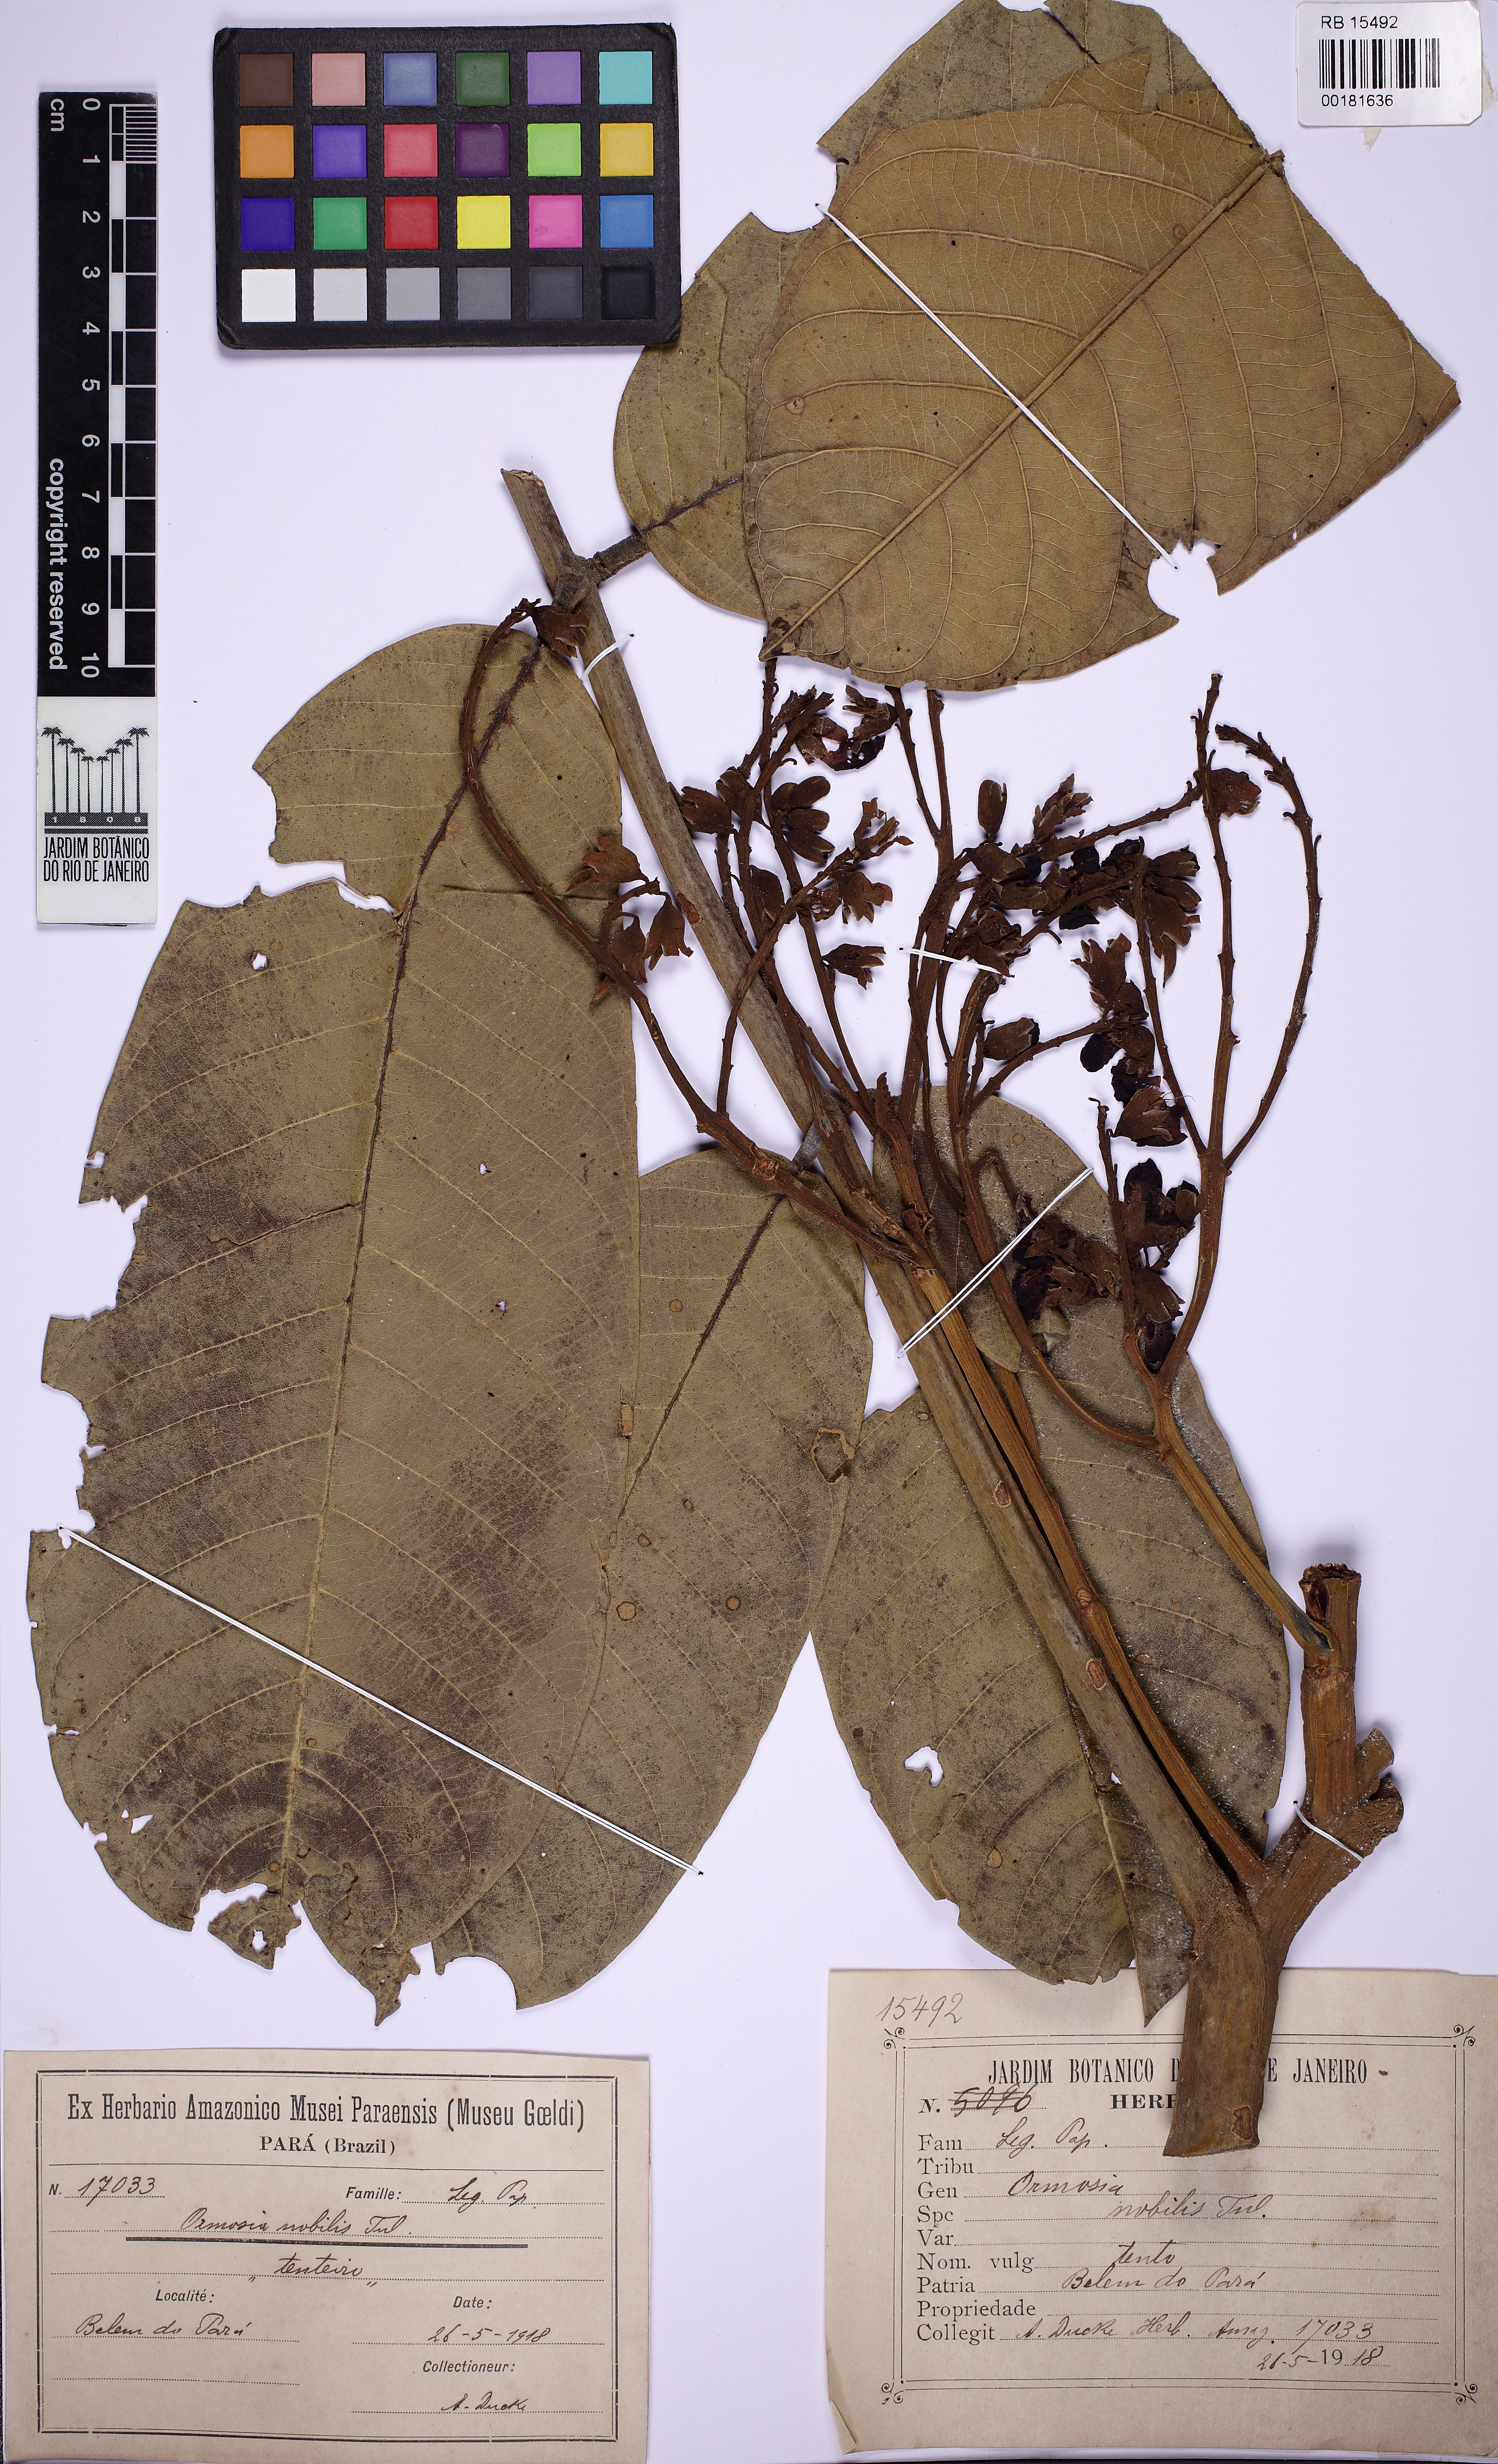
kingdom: Plantae
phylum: Tracheophyta
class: Magnoliopsida
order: Fabales
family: Fabaceae
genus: Ormosia
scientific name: Ormosia nobilis
